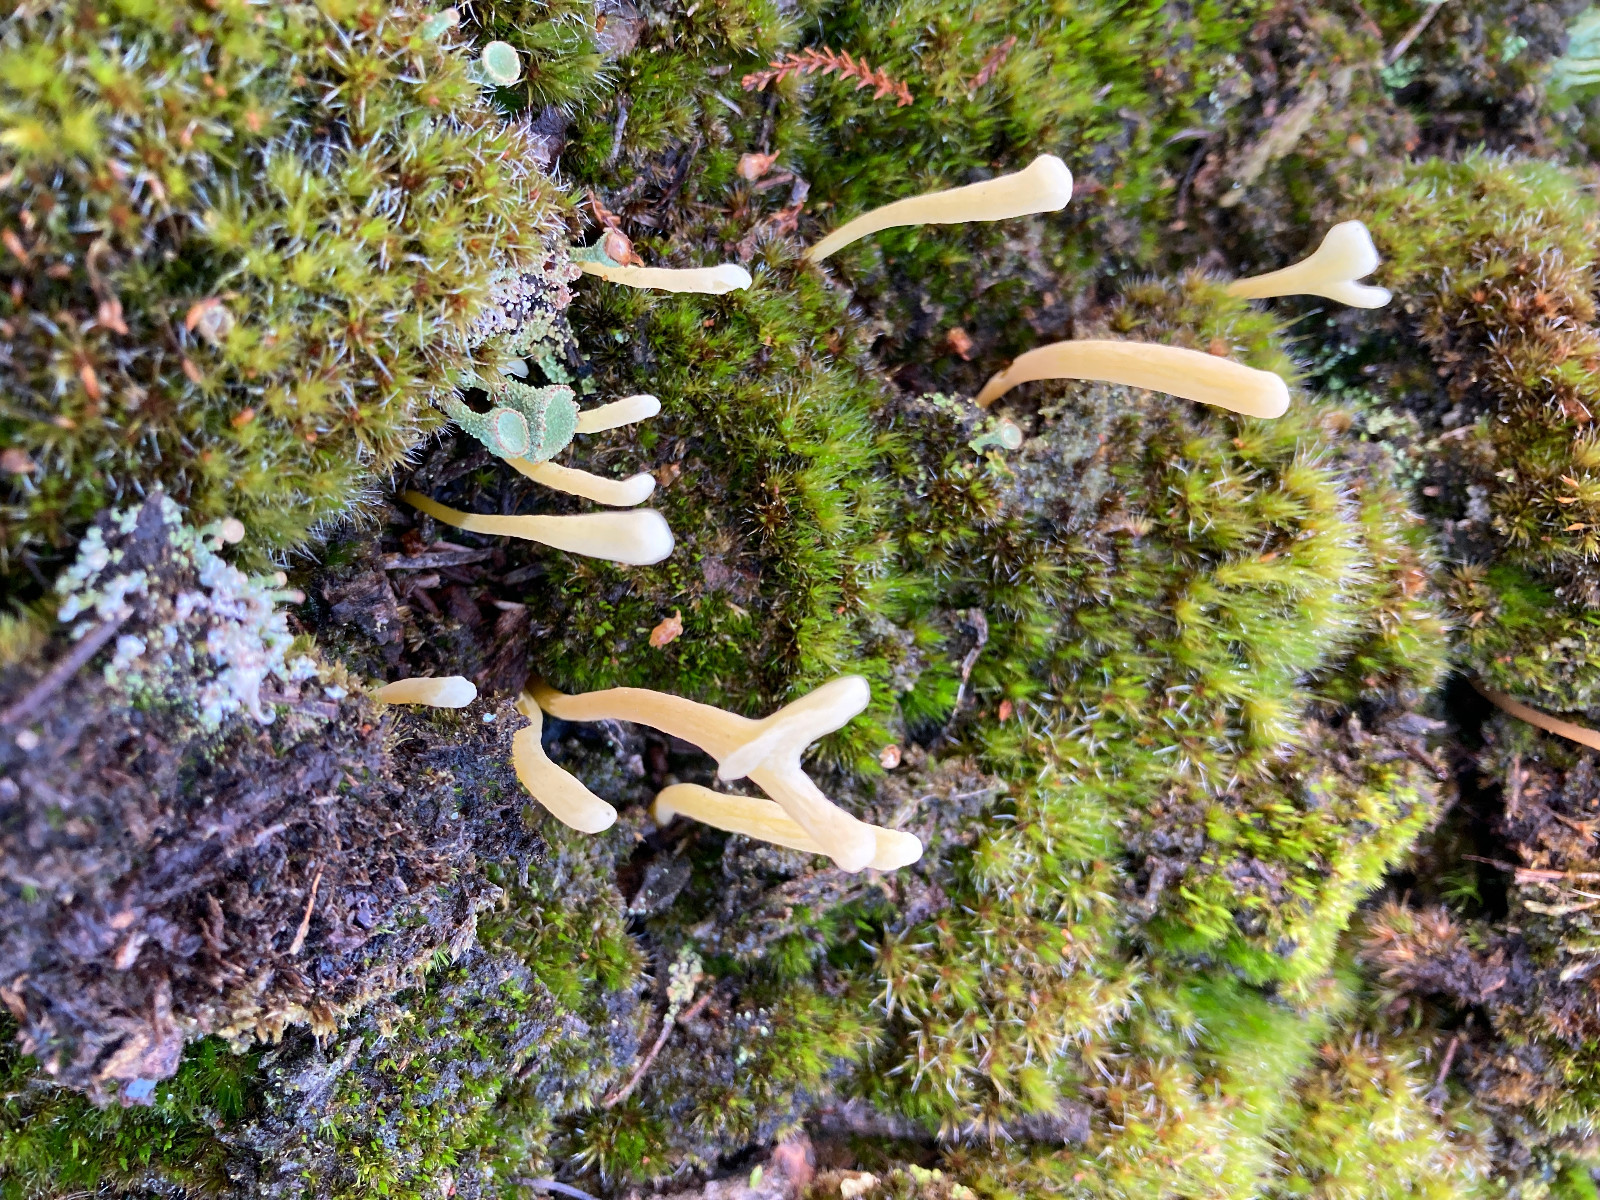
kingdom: Fungi
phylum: Basidiomycota
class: Agaricomycetes
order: Agaricales
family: Clavariaceae
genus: Clavaria
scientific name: Clavaria argillacea
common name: lerfarvet køllesvamp
